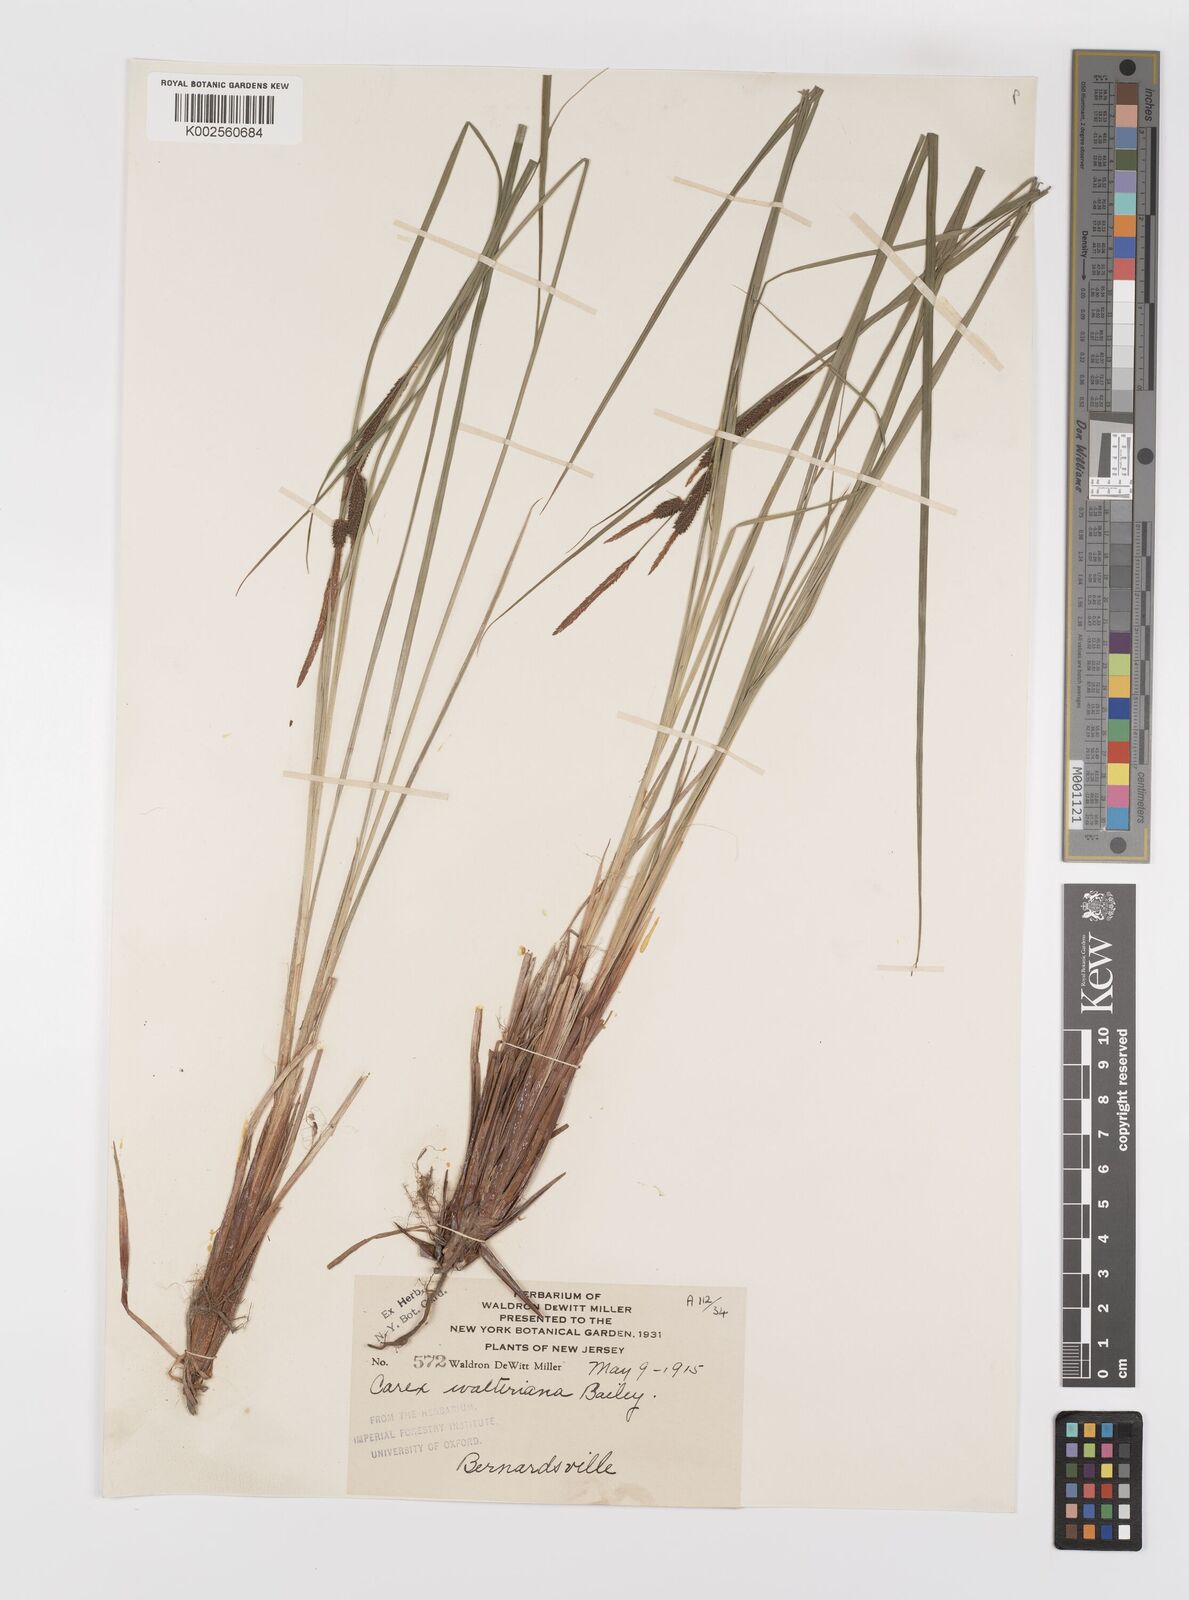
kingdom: Plantae
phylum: Tracheophyta
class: Liliopsida
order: Poales
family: Cyperaceae
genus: Carex
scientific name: Carex striata
